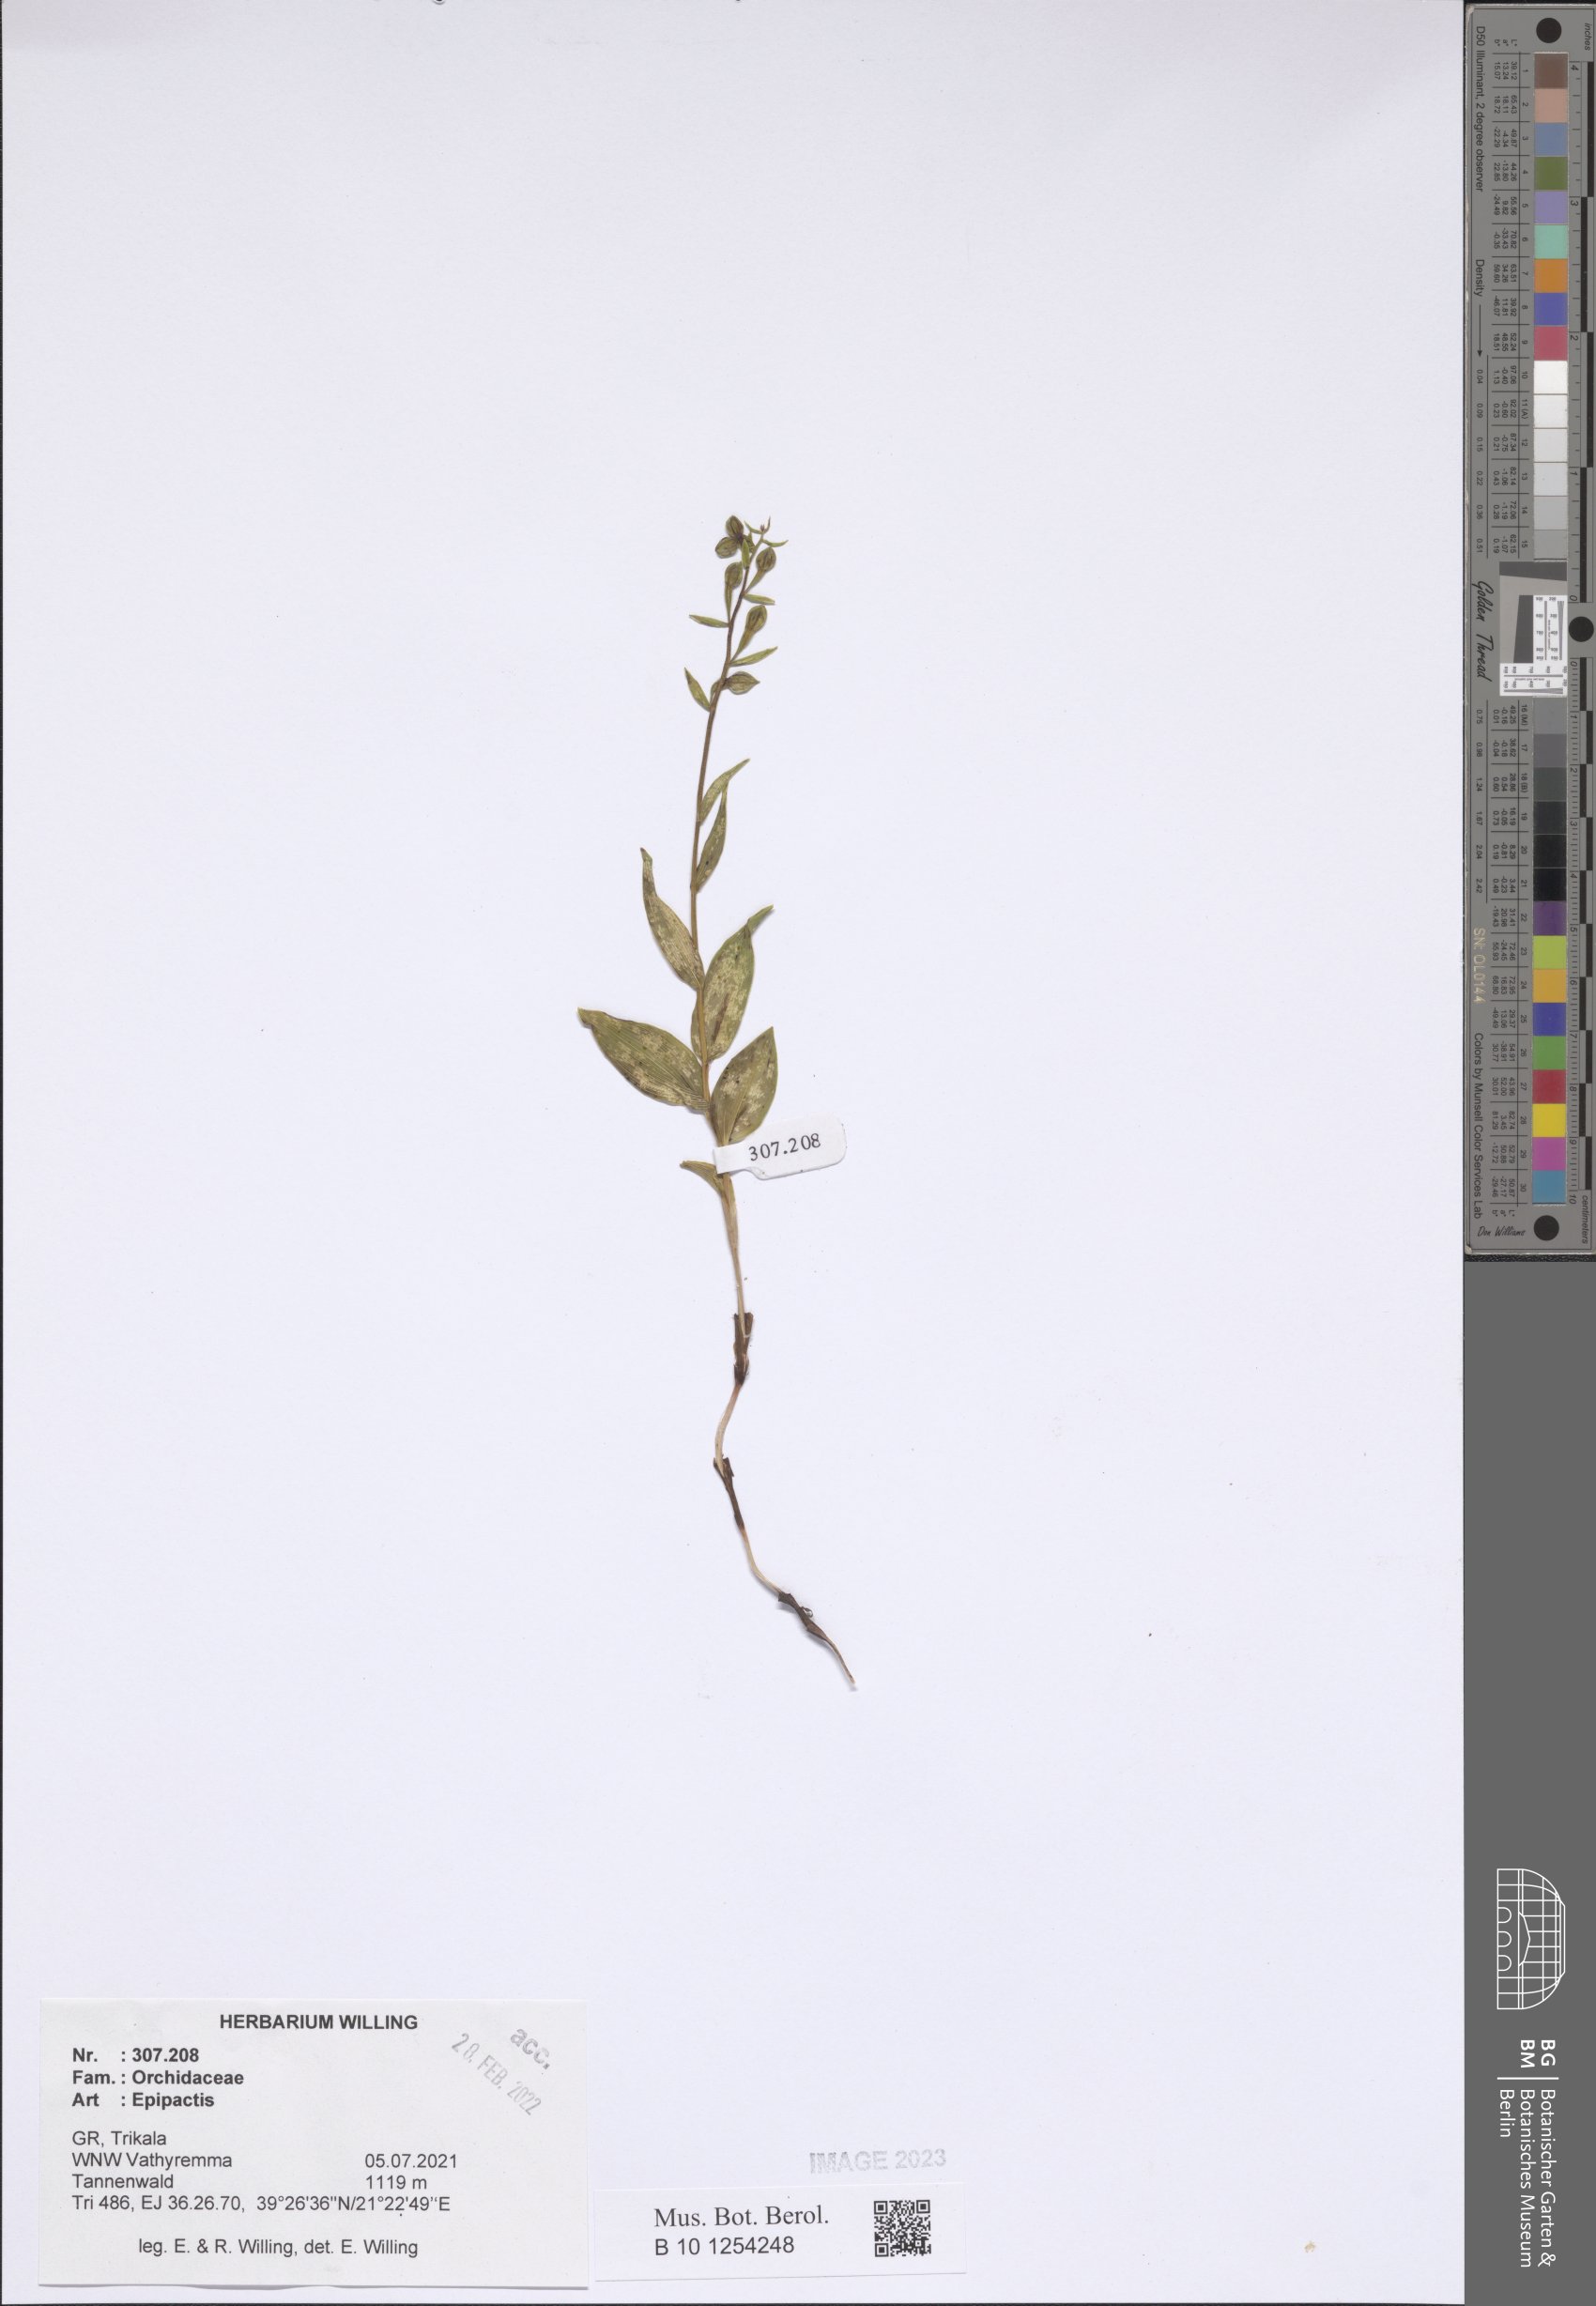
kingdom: Plantae
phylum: Tracheophyta
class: Liliopsida
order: Asparagales
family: Orchidaceae
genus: Epipactis
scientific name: Epipactis
